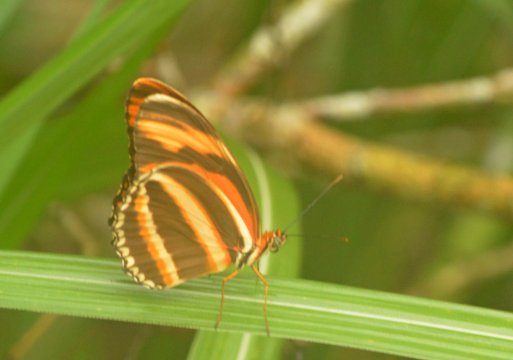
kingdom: Animalia
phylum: Arthropoda
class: Insecta
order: Lepidoptera
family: Nymphalidae
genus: Dryadula
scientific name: Dryadula phaetusa
